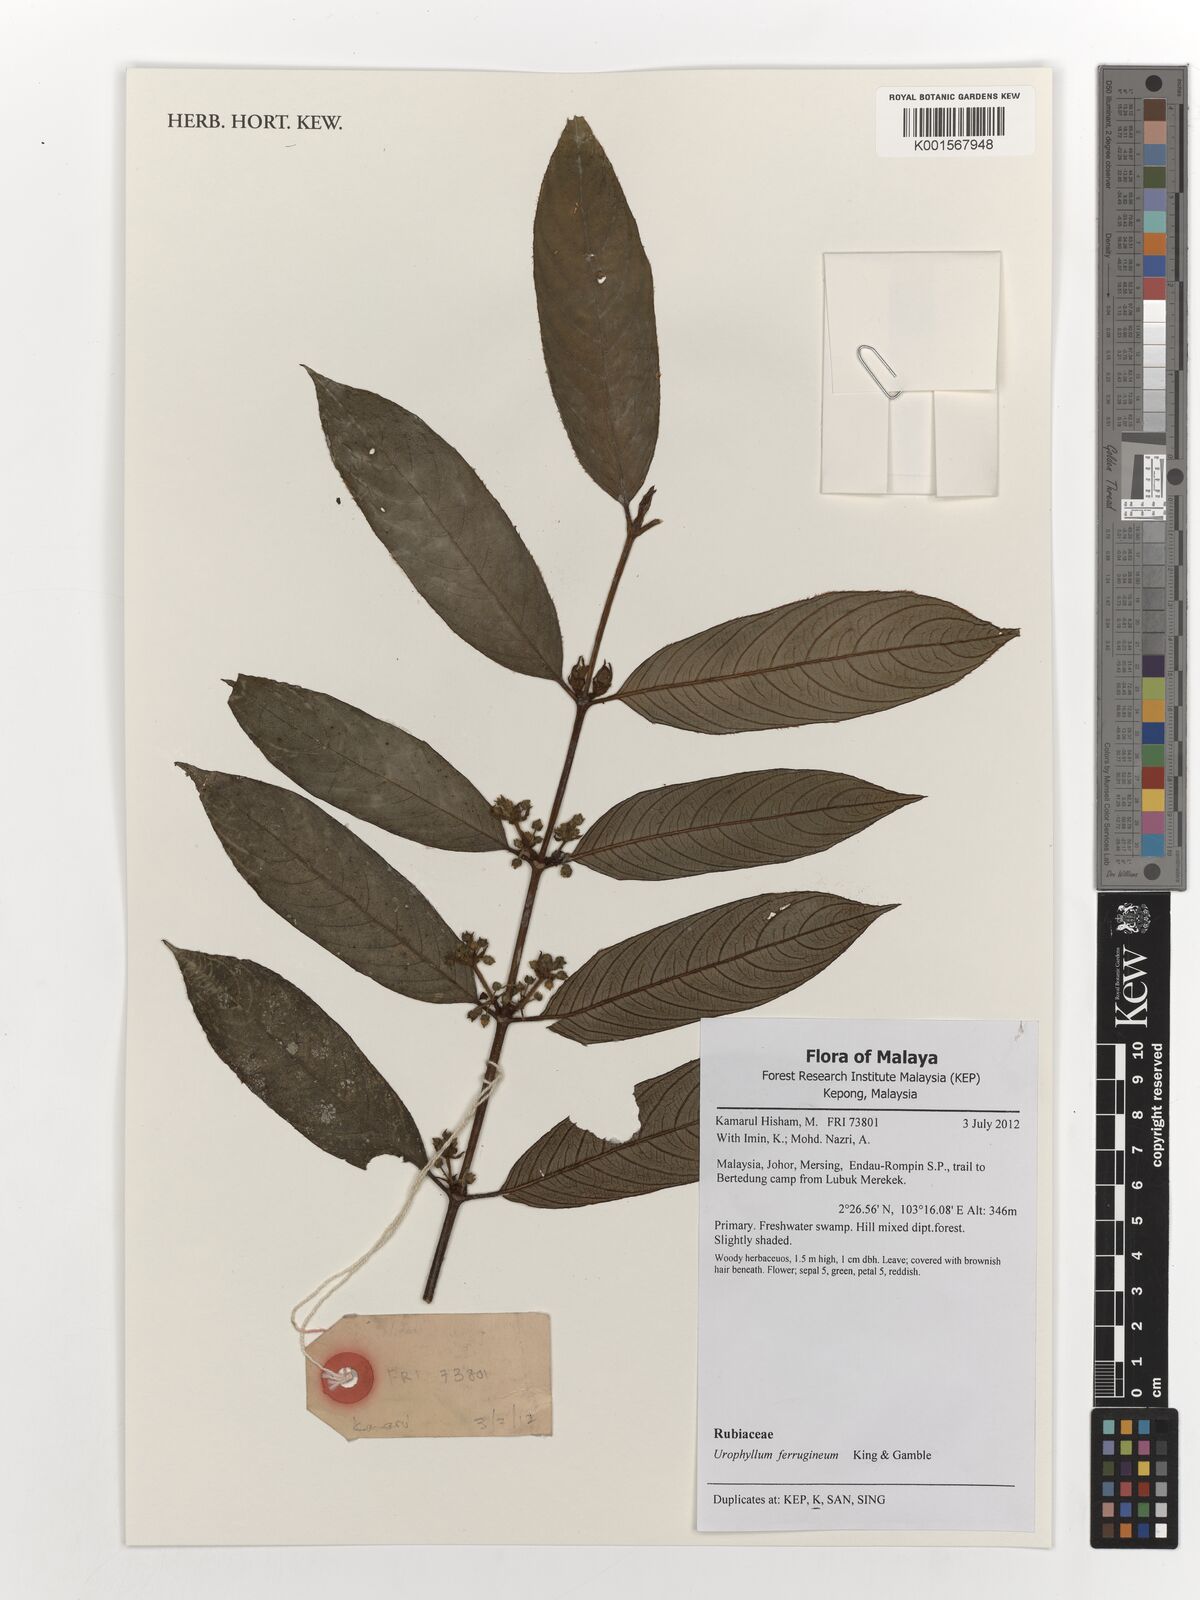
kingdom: Plantae
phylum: Tracheophyta
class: Magnoliopsida
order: Gentianales
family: Rubiaceae
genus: Urophyllum
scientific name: Urophyllum ferrugineum
